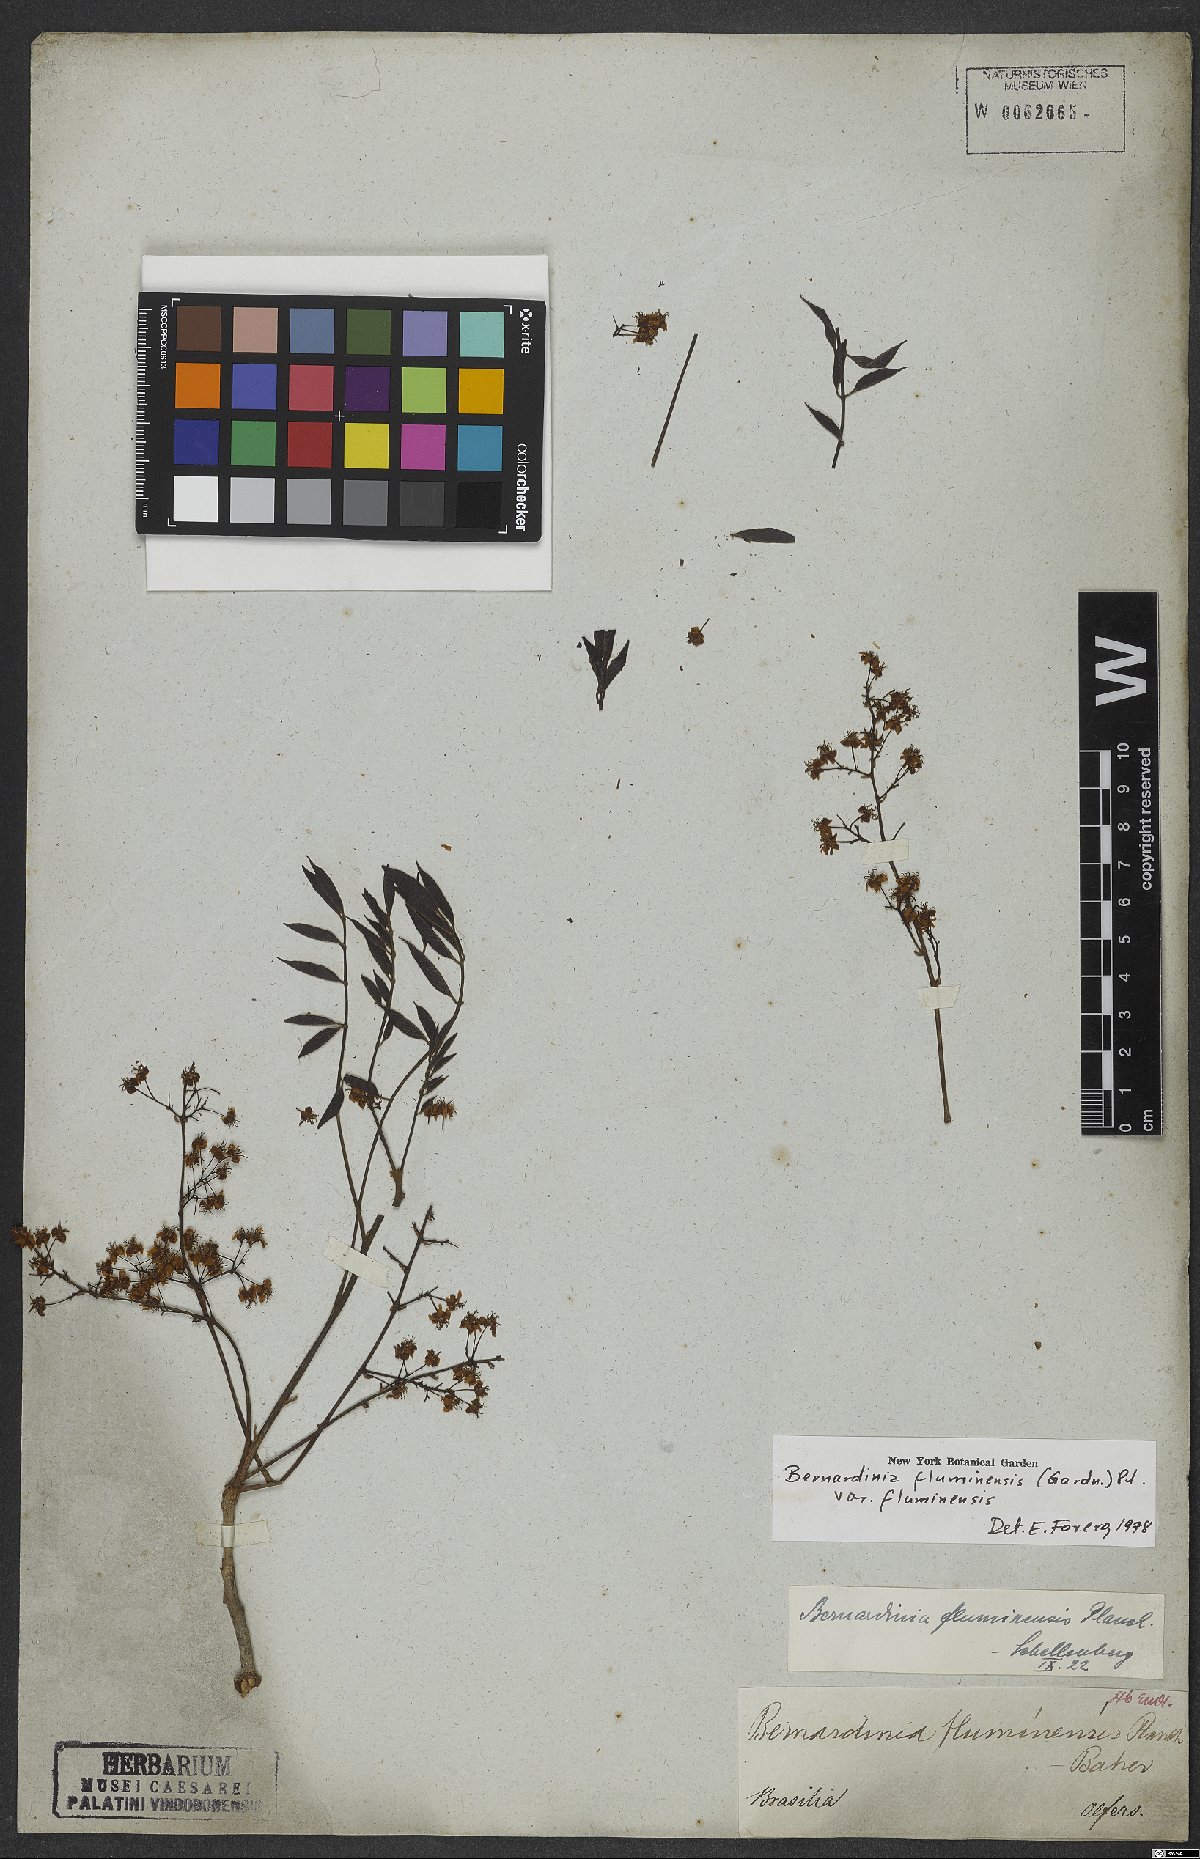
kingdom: Plantae
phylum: Tracheophyta
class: Magnoliopsida
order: Oxalidales
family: Connaraceae
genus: Rourea
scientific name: Rourea fluminensis
